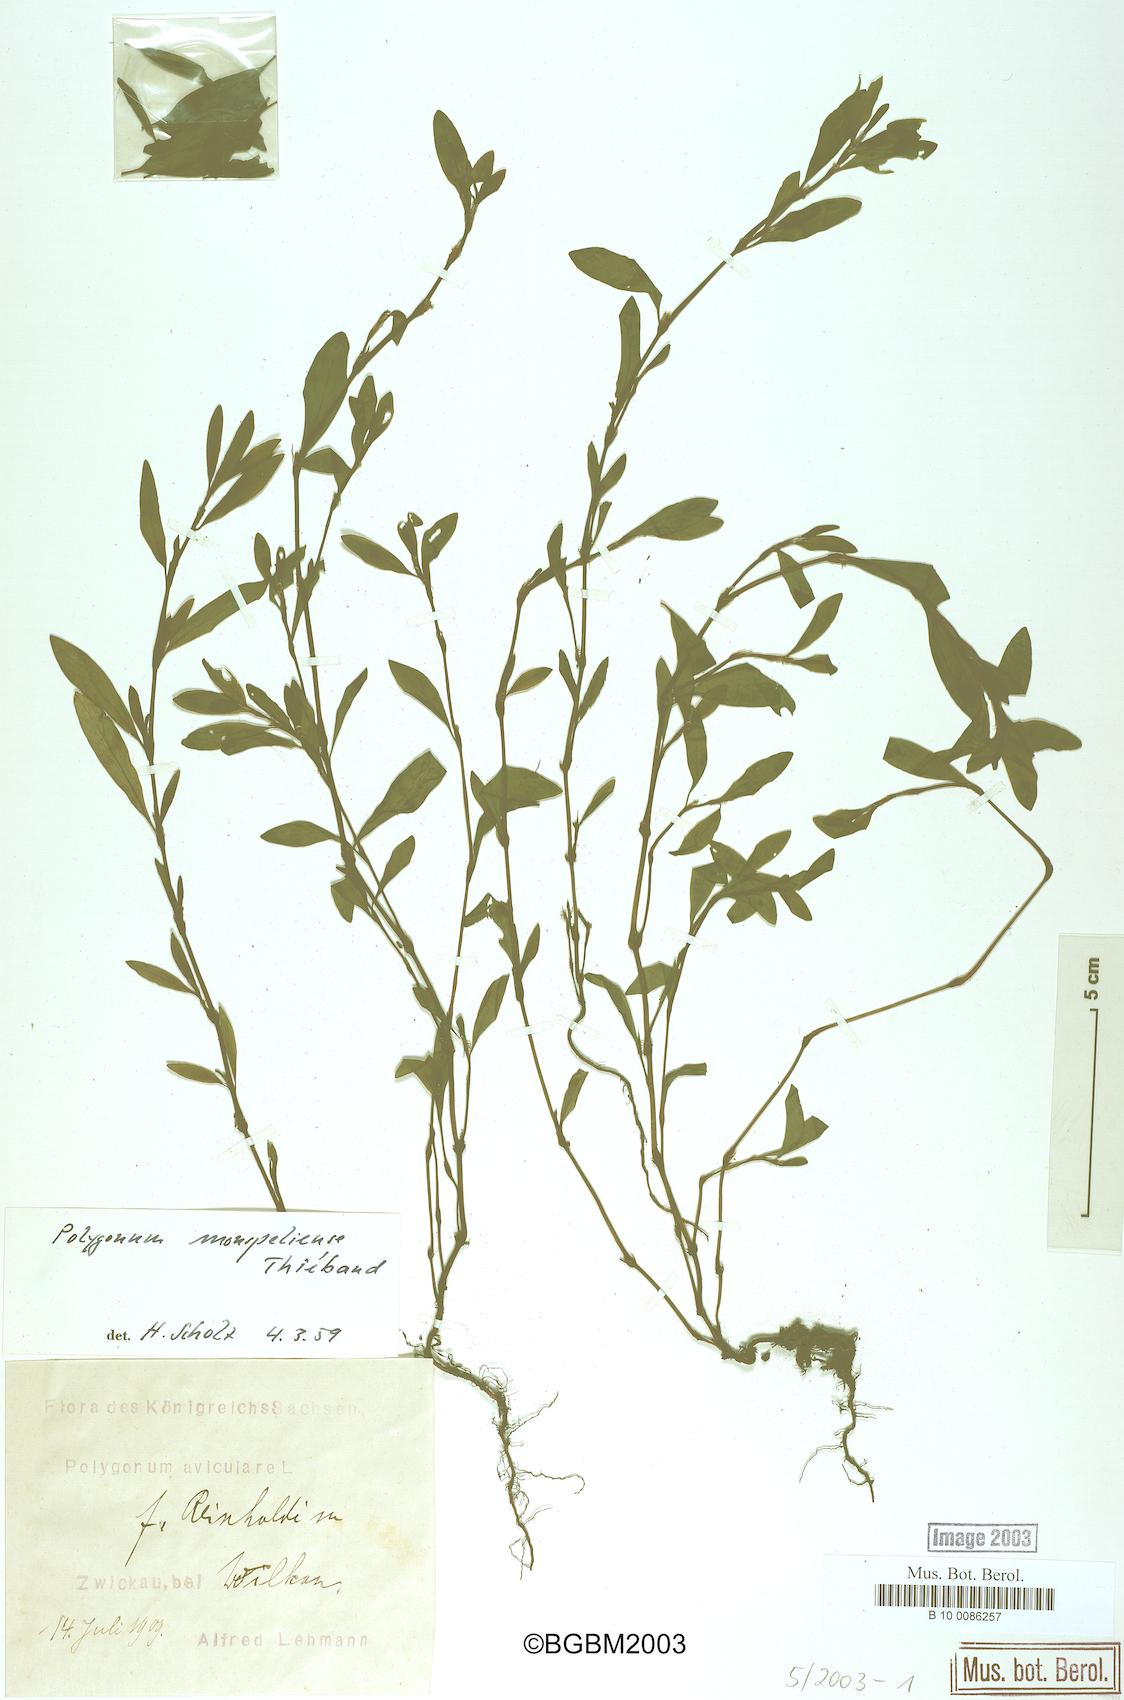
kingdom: Plantae
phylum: Tracheophyta
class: Magnoliopsida
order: Caryophyllales
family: Polygonaceae
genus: Polygonum
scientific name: Polygonum
